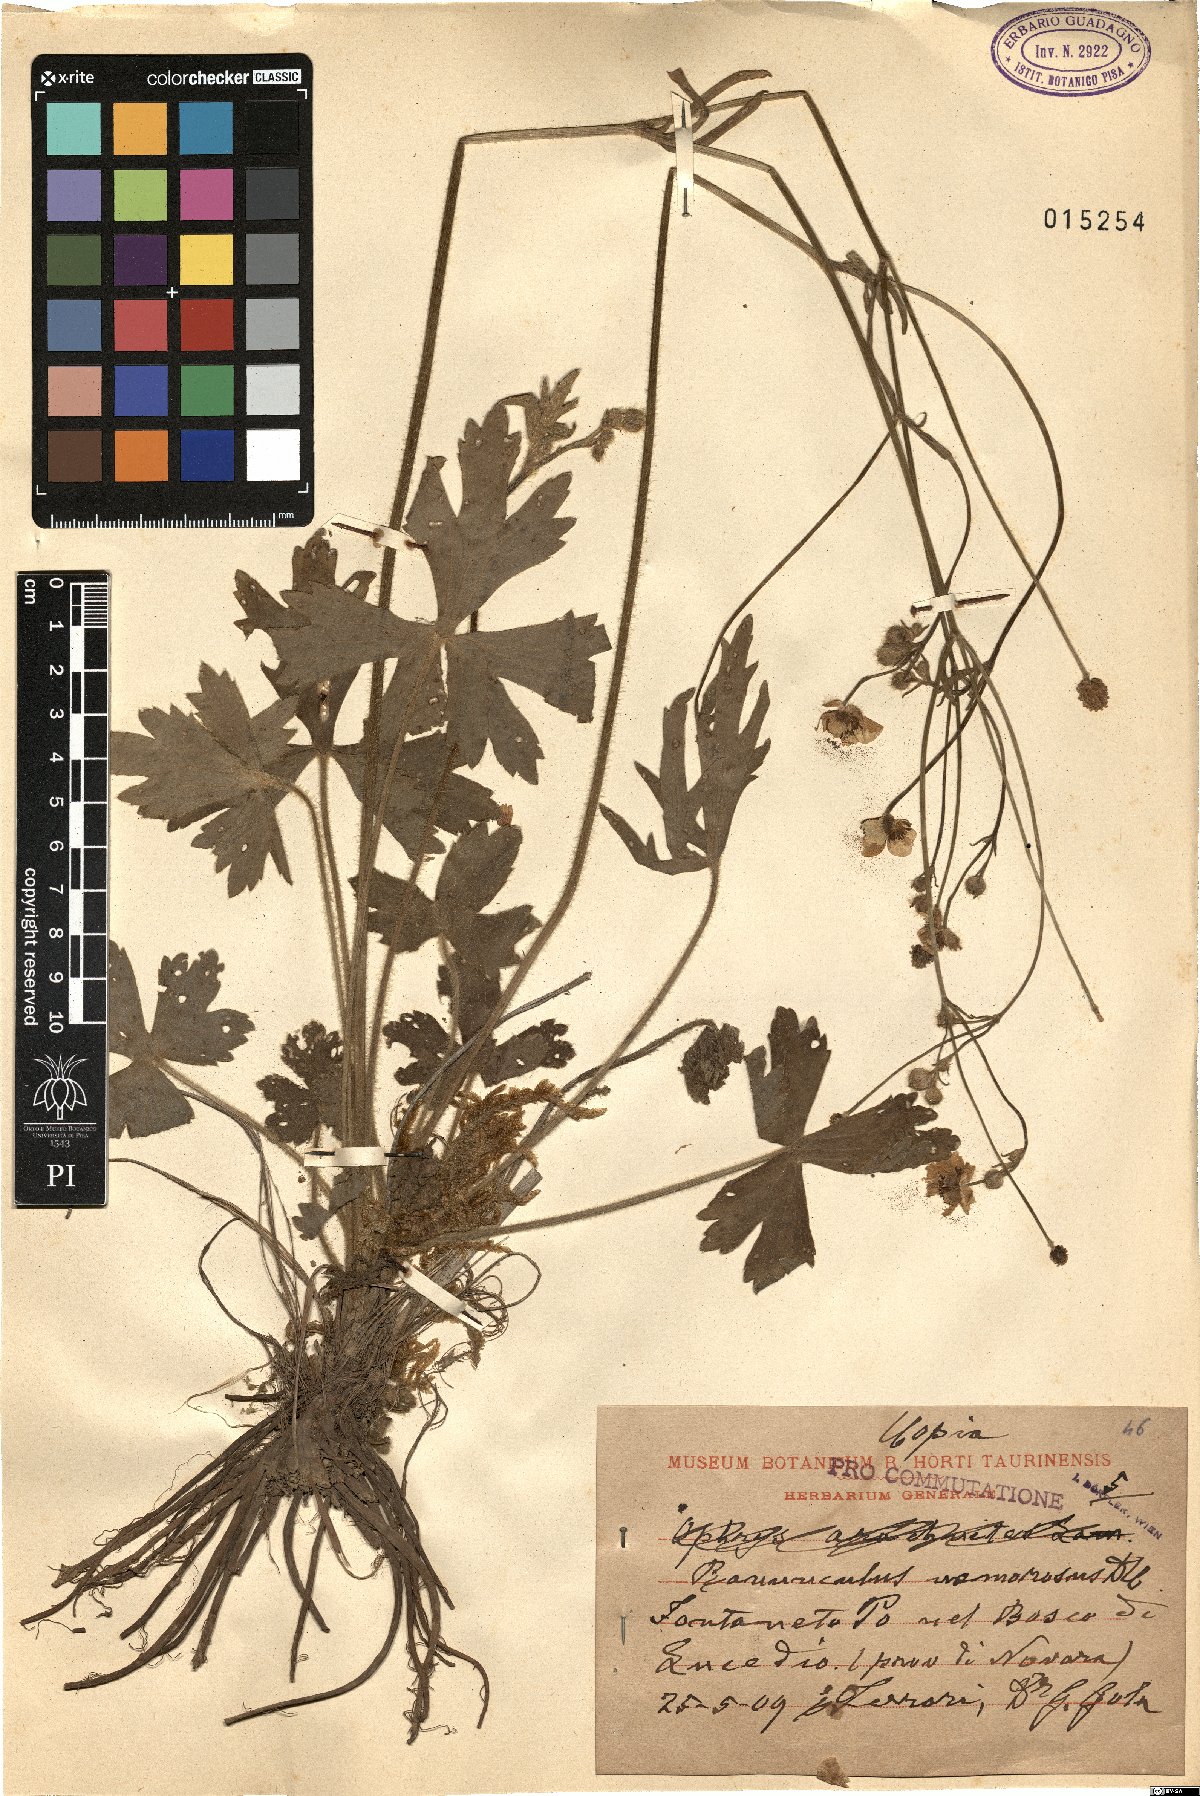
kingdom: Plantae
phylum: Tracheophyta
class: Magnoliopsida
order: Ranunculales
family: Ranunculaceae
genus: Ranunculus
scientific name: Ranunculus polyanthemos
